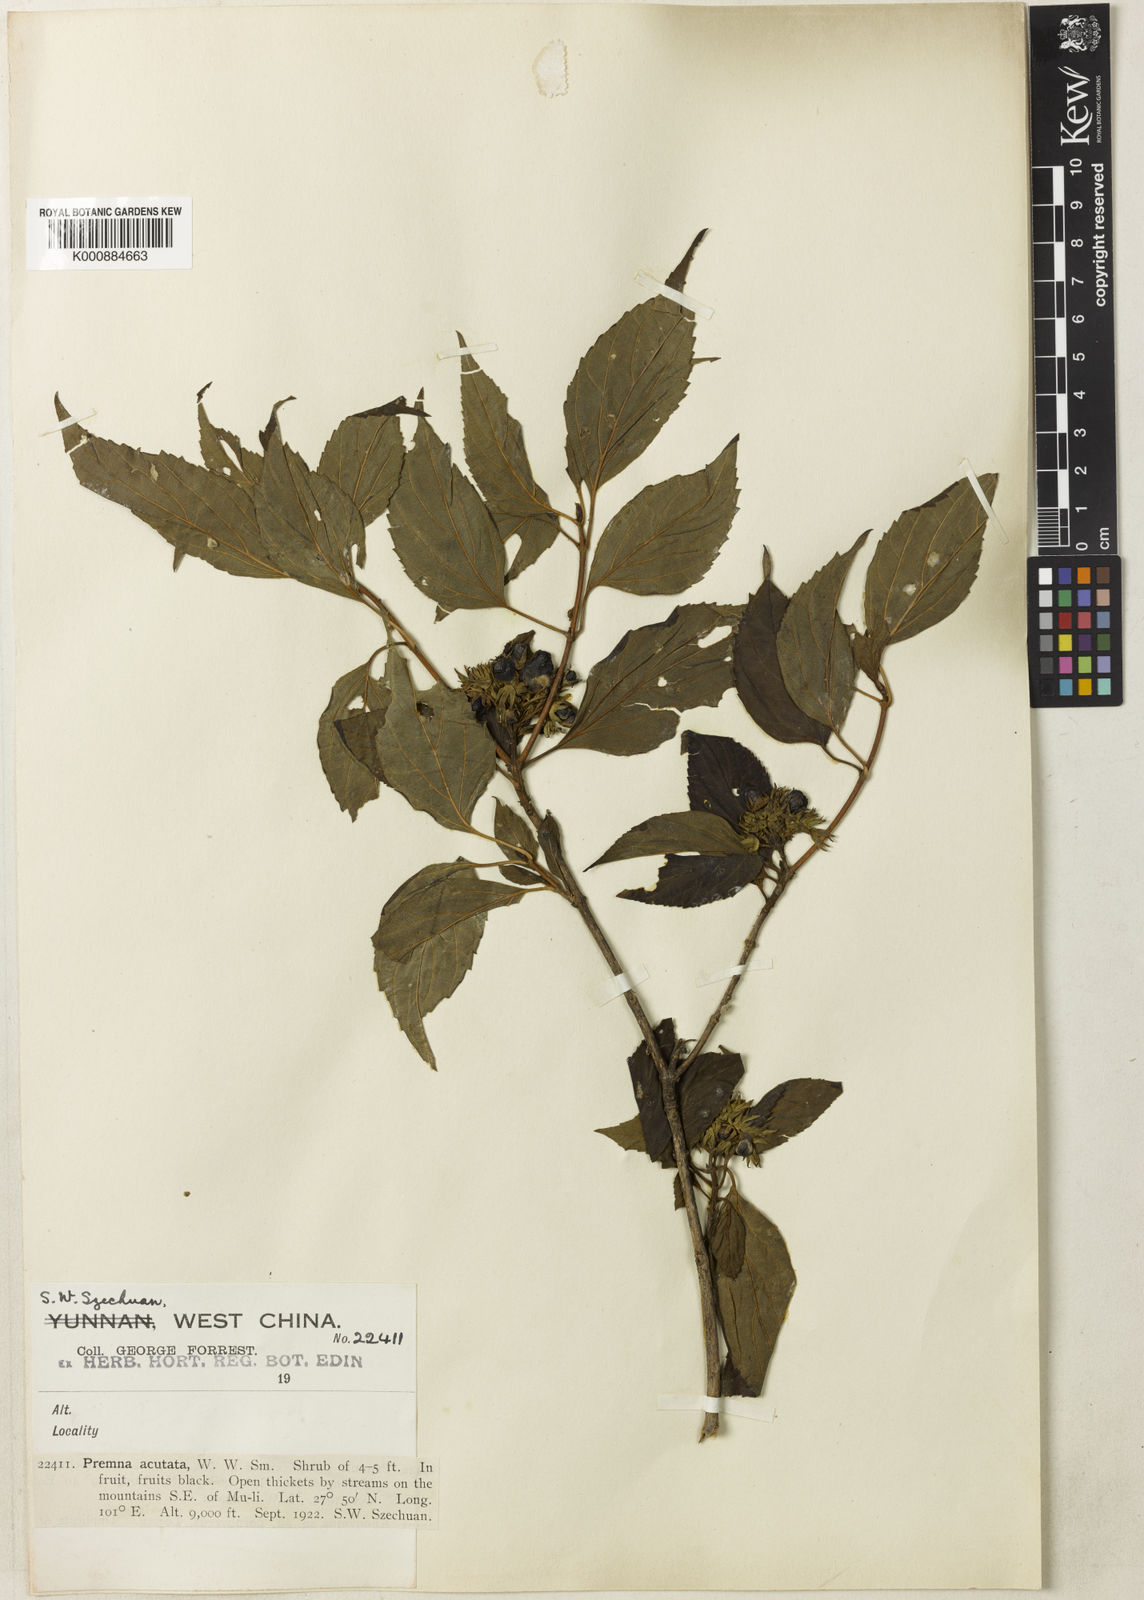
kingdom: Plantae
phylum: Tracheophyta
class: Magnoliopsida
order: Lamiales
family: Lamiaceae
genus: Premna
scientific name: Premna acutata
